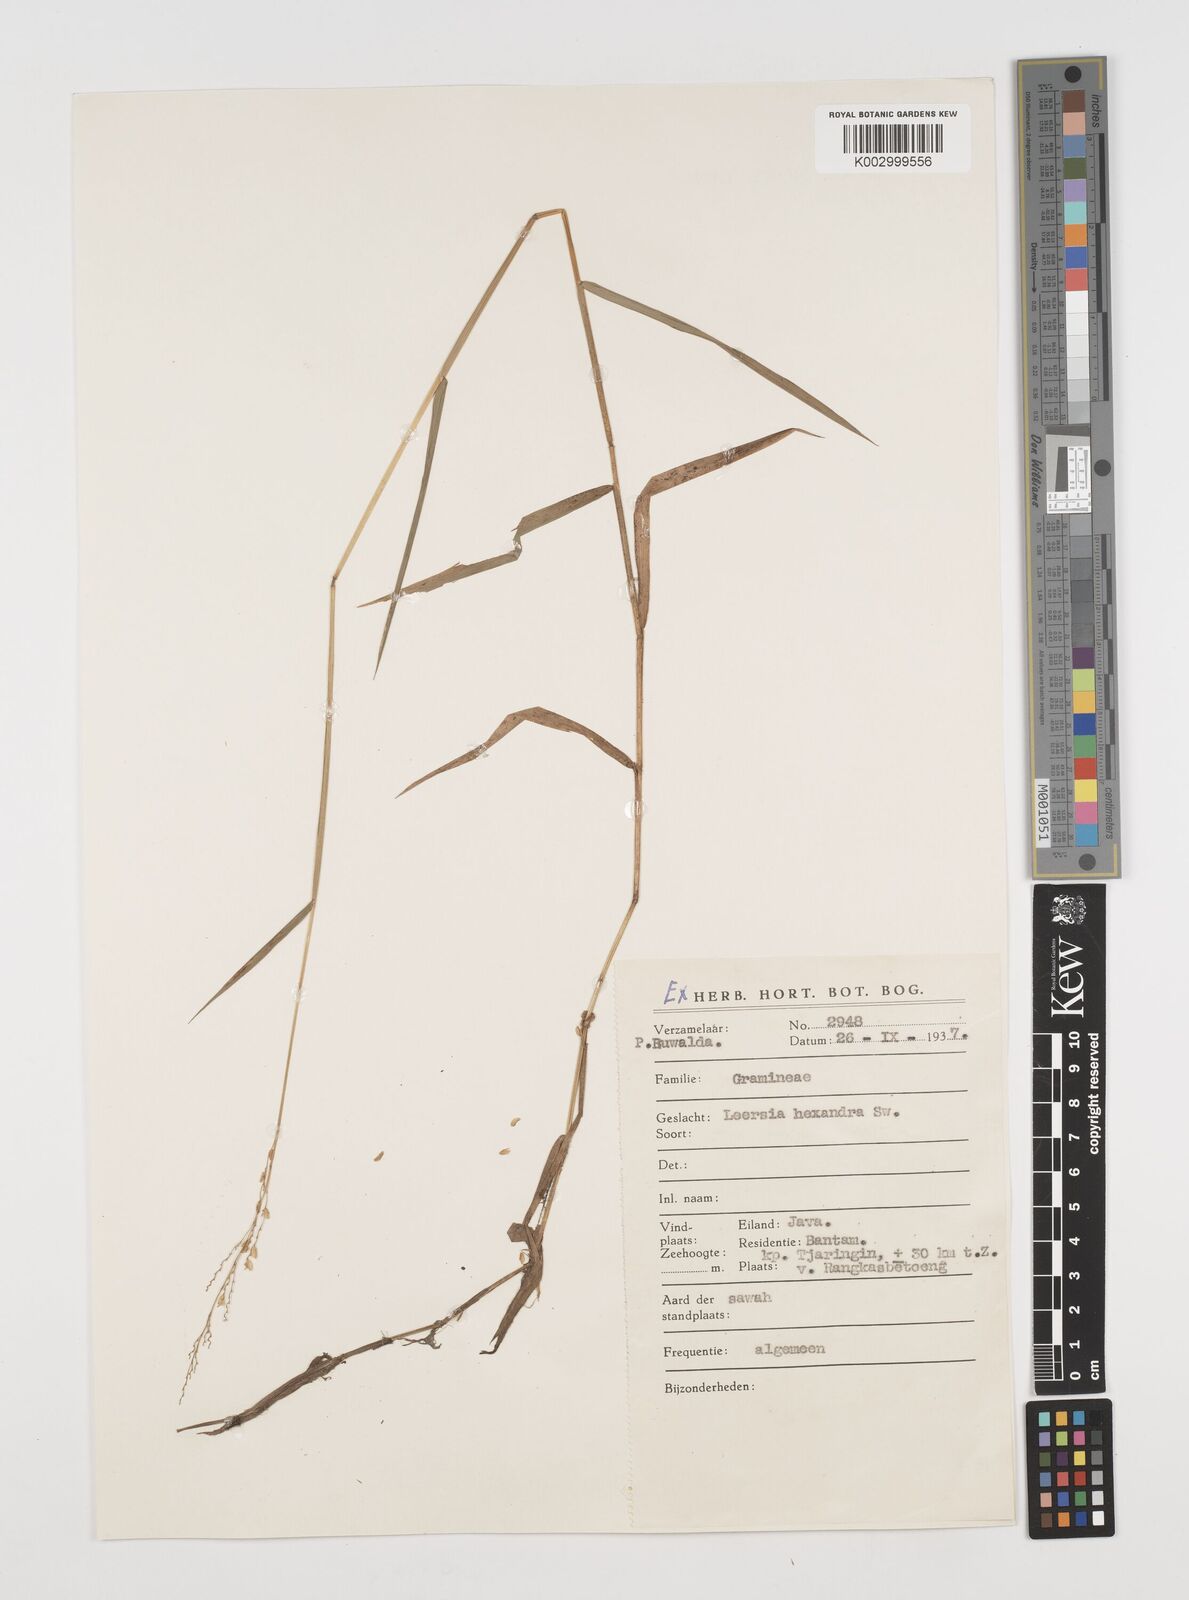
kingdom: Plantae
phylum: Tracheophyta
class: Liliopsida
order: Poales
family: Poaceae
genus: Leersia
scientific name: Leersia hexandra
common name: Southern cut grass
